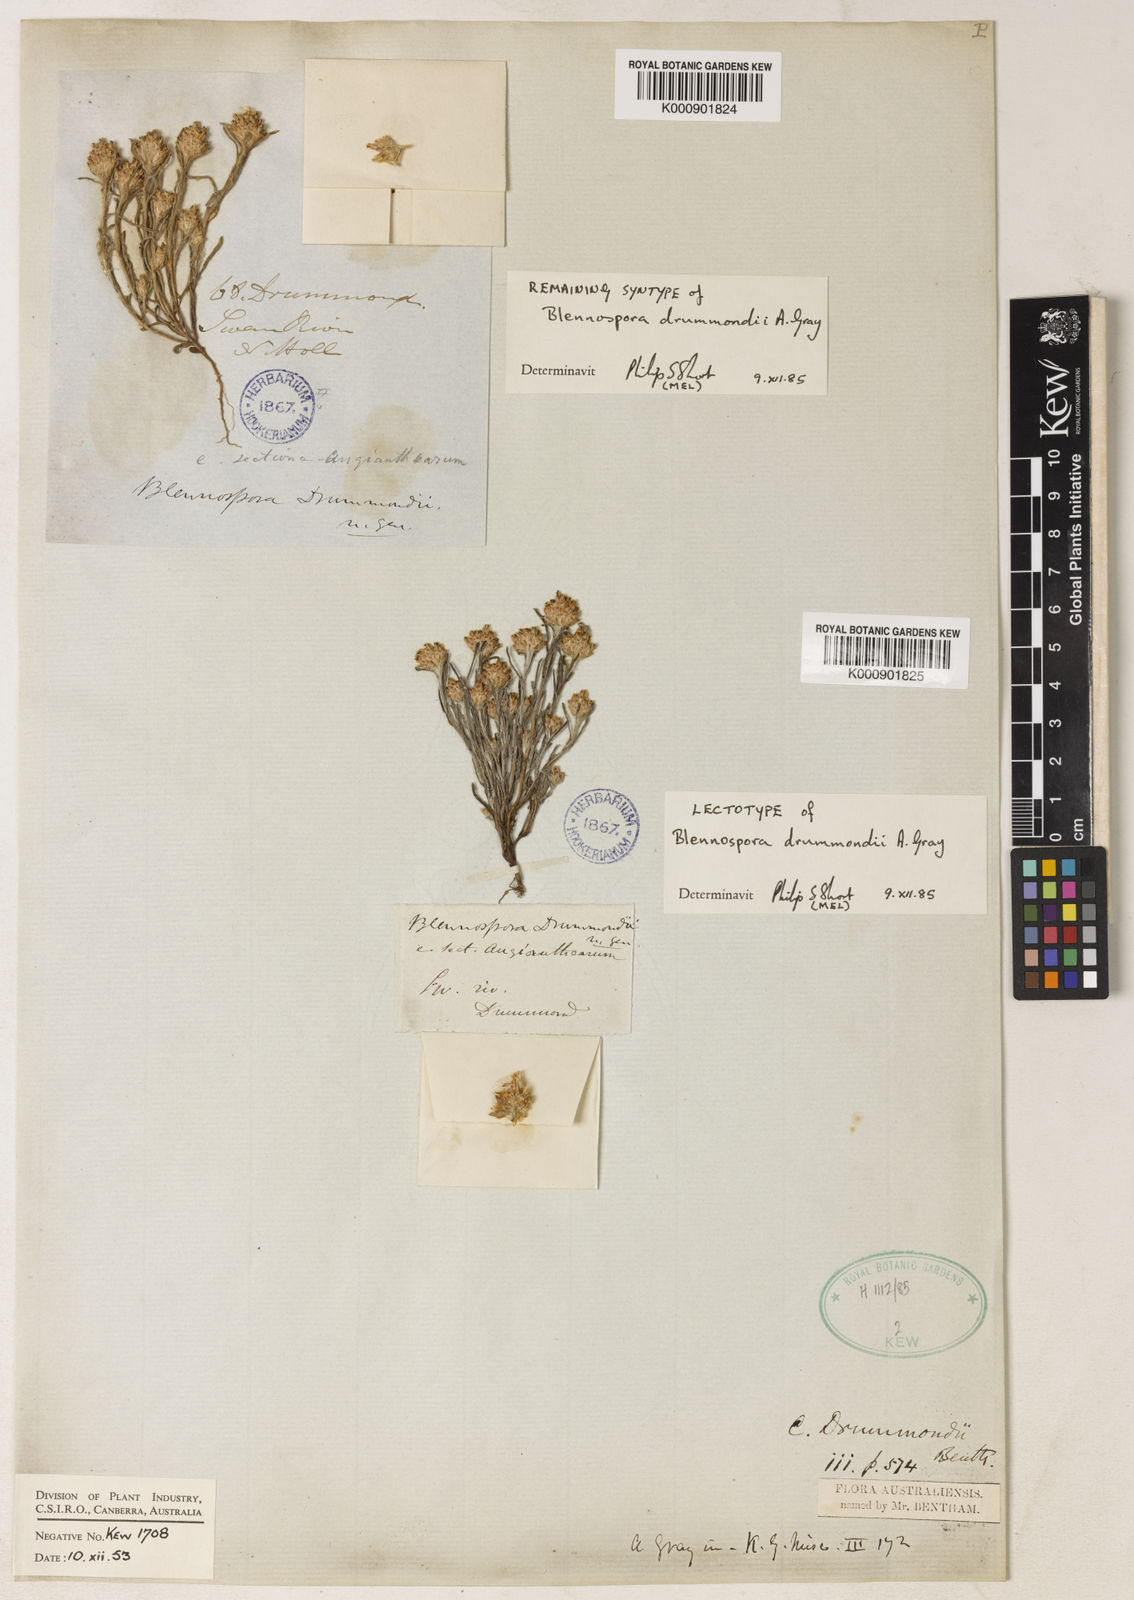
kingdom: Plantae
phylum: Tracheophyta
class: Magnoliopsida
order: Asterales
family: Asteraceae
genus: Blennospora
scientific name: Blennospora drummondii
